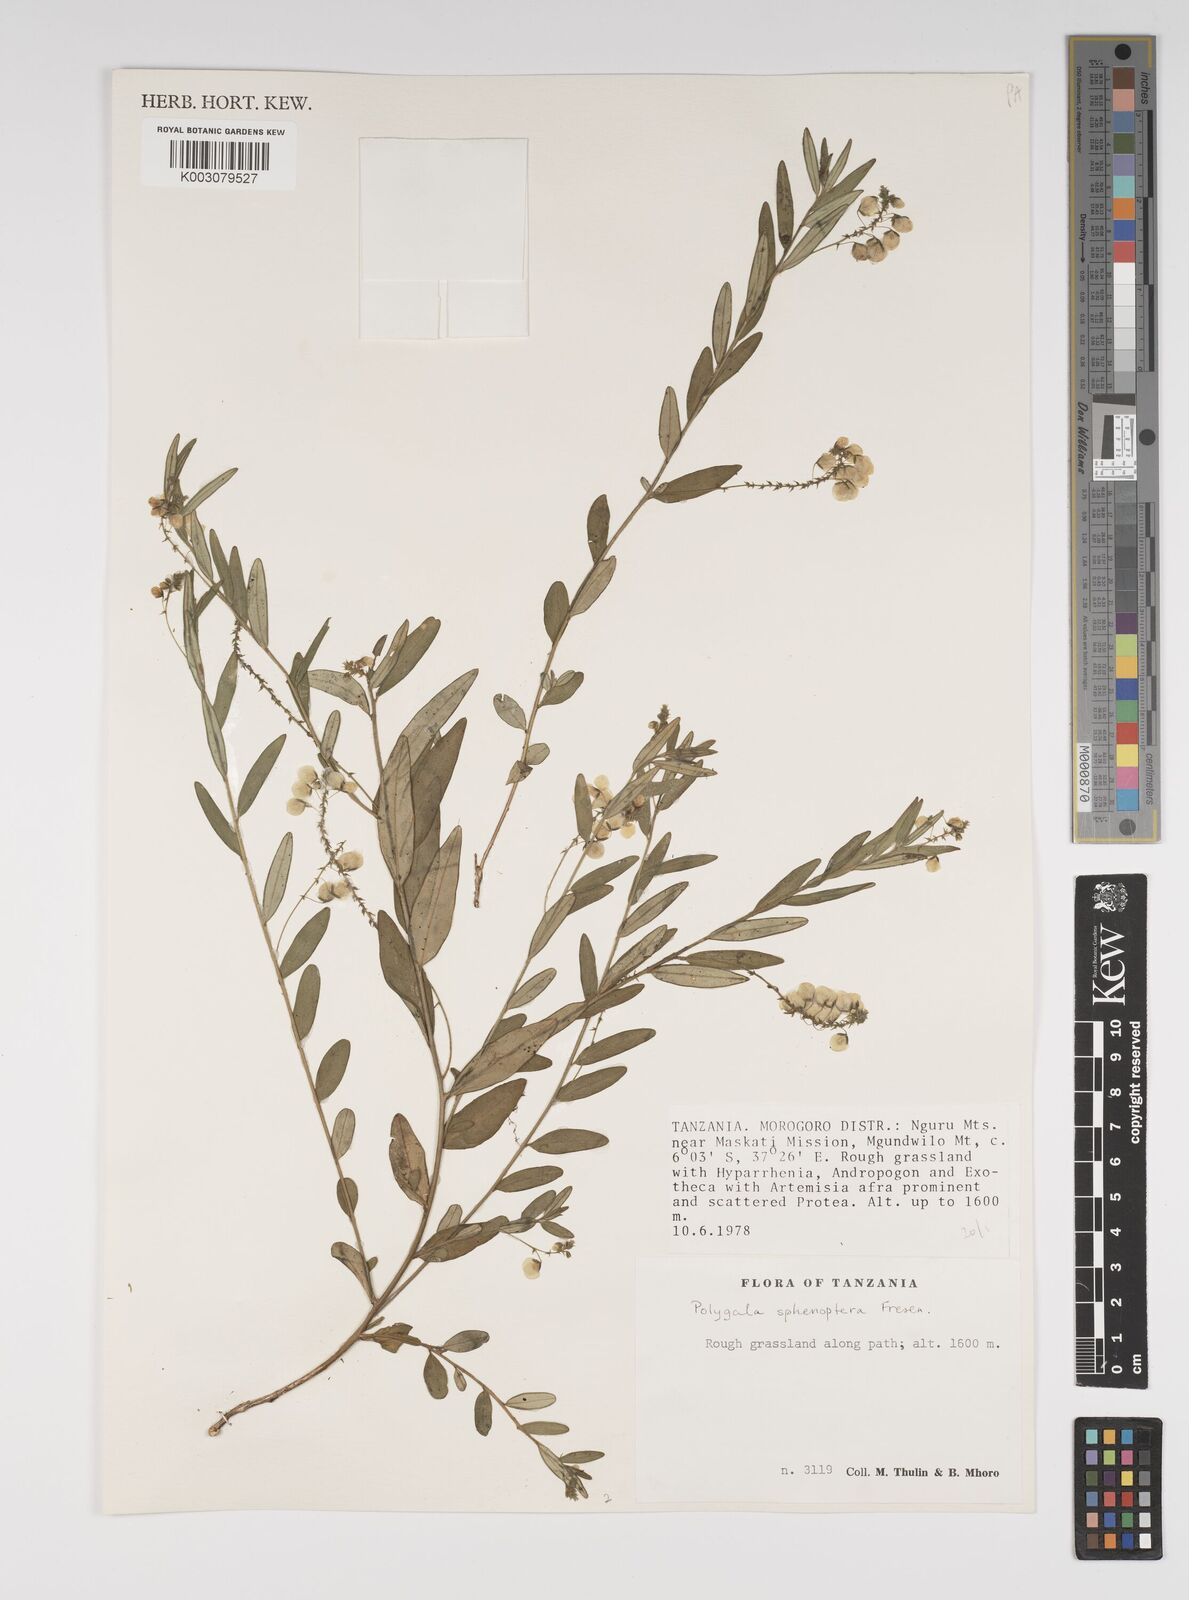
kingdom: Plantae
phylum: Tracheophyta
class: Magnoliopsida
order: Fabales
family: Polygalaceae
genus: Polygala
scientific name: Polygala sphenoptera
